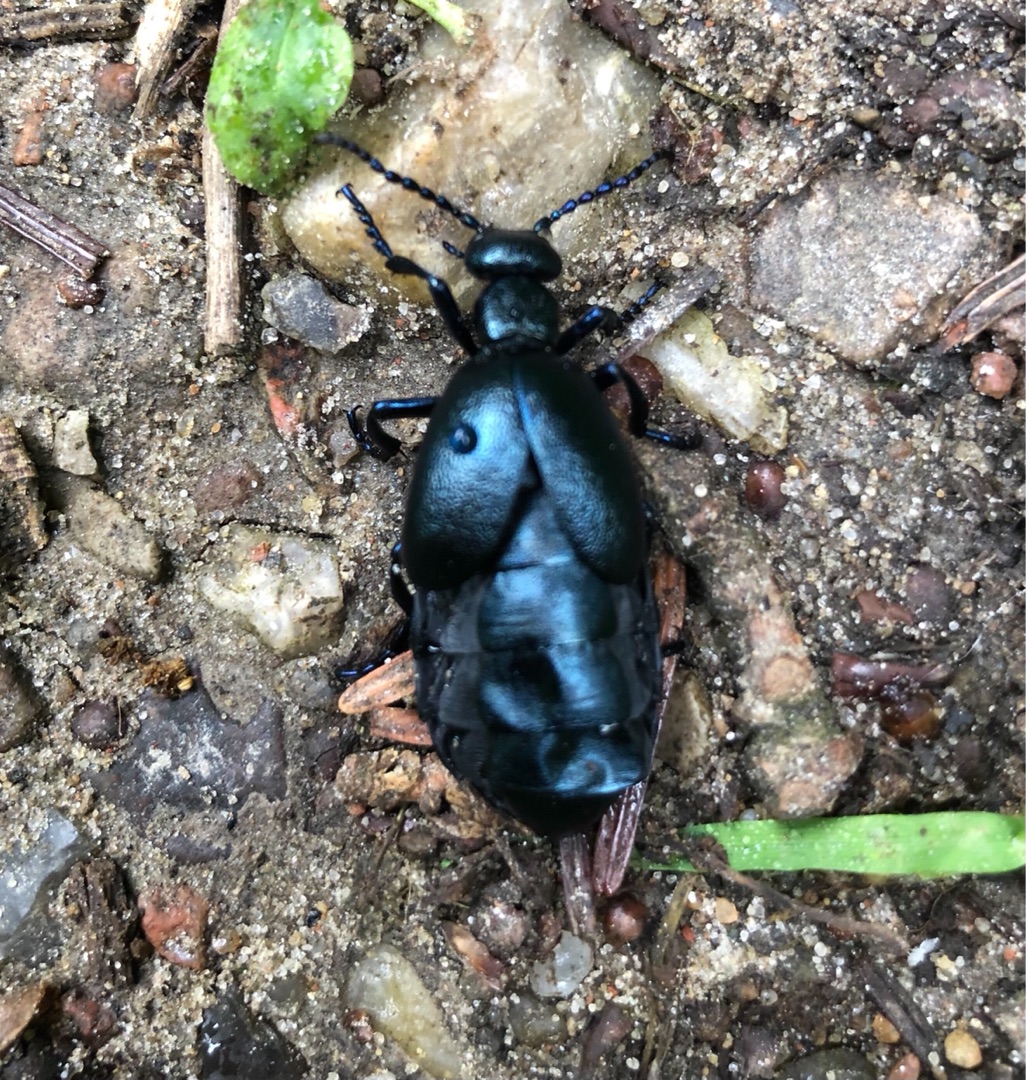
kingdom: Animalia
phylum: Arthropoda
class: Insecta
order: Coleoptera
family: Meloidae
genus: Meloe
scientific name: Meloe violaceus
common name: Blå oliebille
